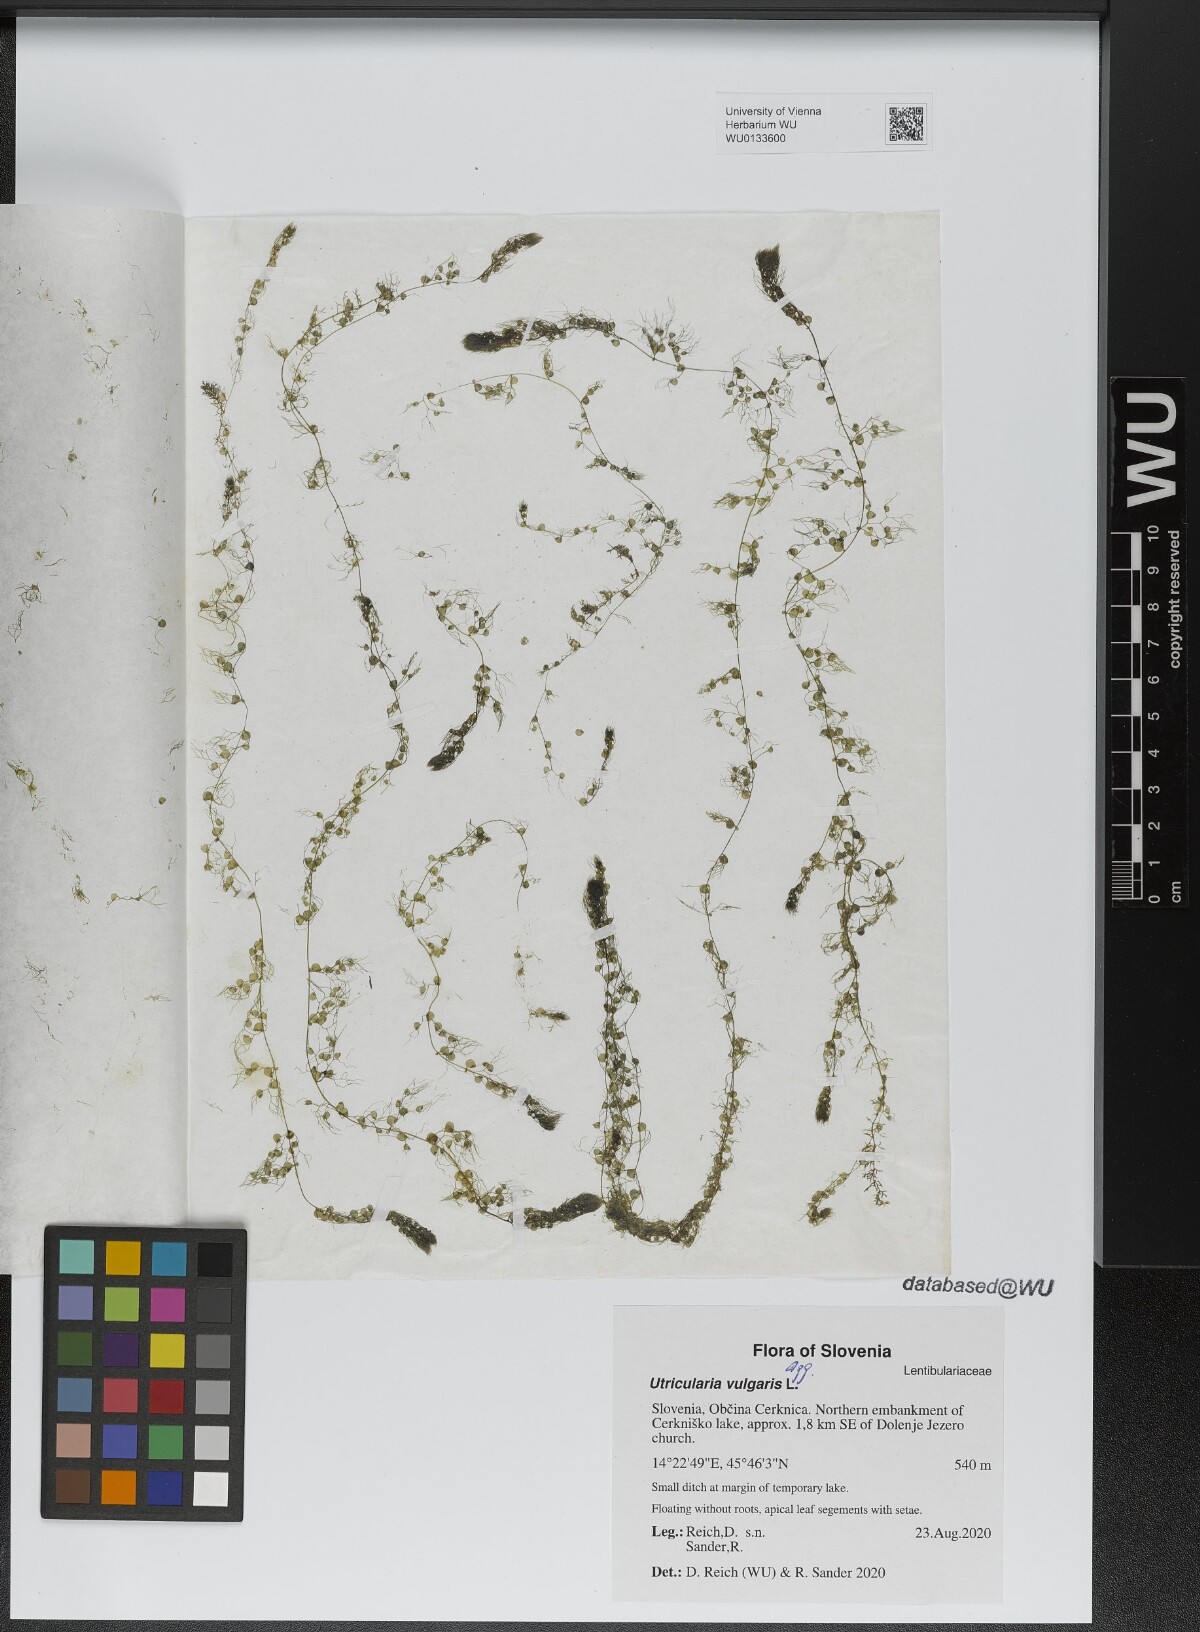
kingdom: Plantae
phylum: Tracheophyta
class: Magnoliopsida
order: Lamiales
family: Lentibulariaceae
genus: Utricularia
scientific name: Utricularia vulgaris
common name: Greater bladderwort
